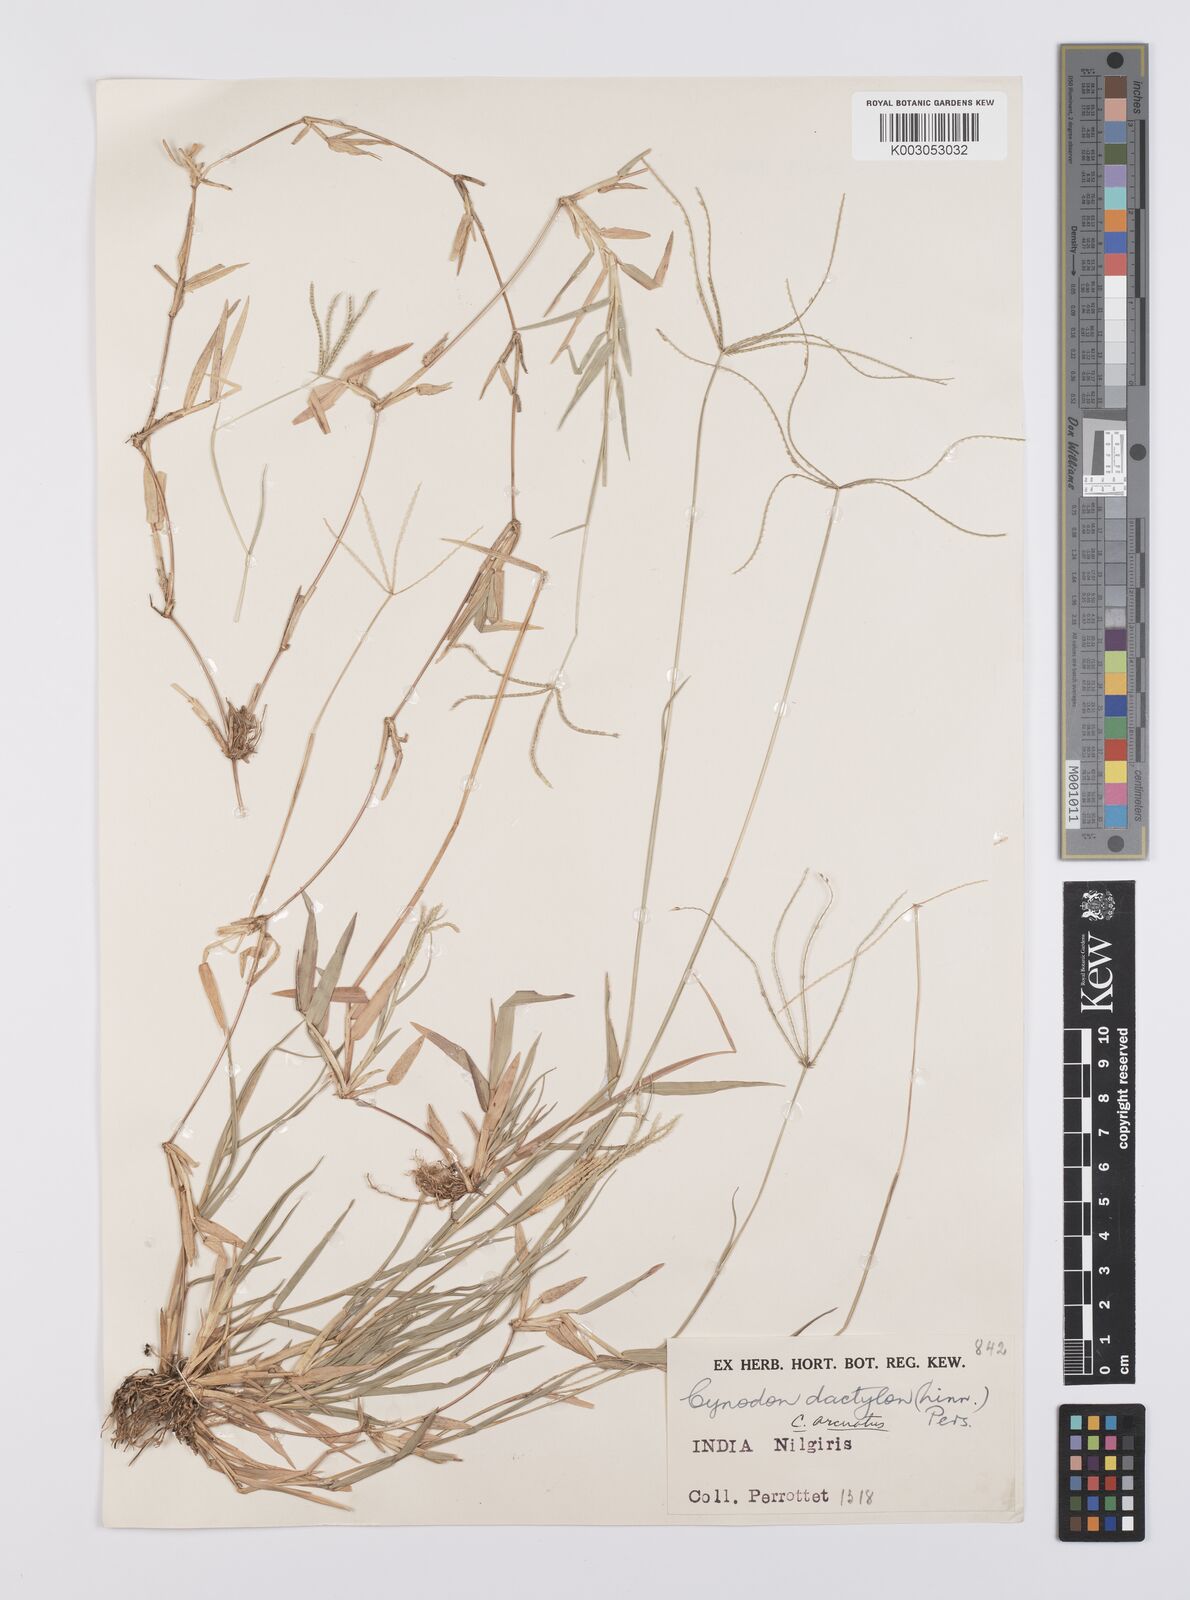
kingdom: Plantae
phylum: Tracheophyta
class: Liliopsida
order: Poales
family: Poaceae
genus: Cynodon
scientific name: Cynodon radiatus
